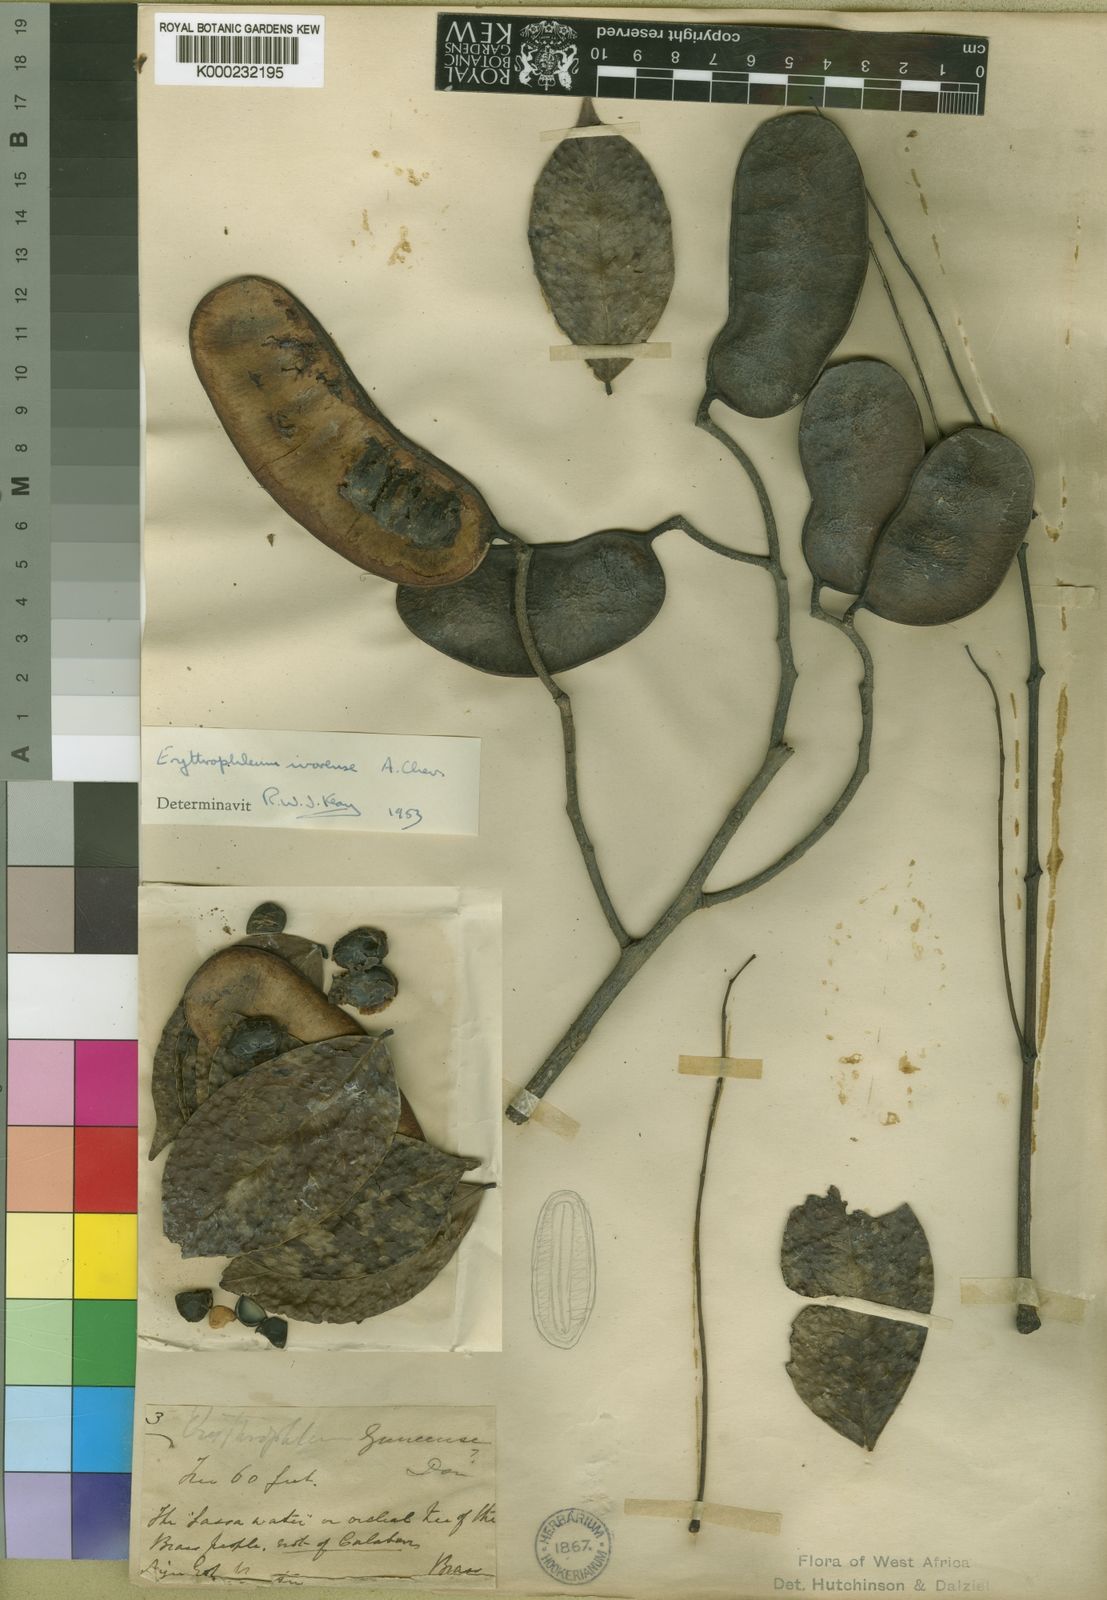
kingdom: Plantae
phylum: Tracheophyta
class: Magnoliopsida
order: Fabales
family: Fabaceae
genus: Erythrophleum
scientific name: Erythrophleum ivorense
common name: Ordealtree
